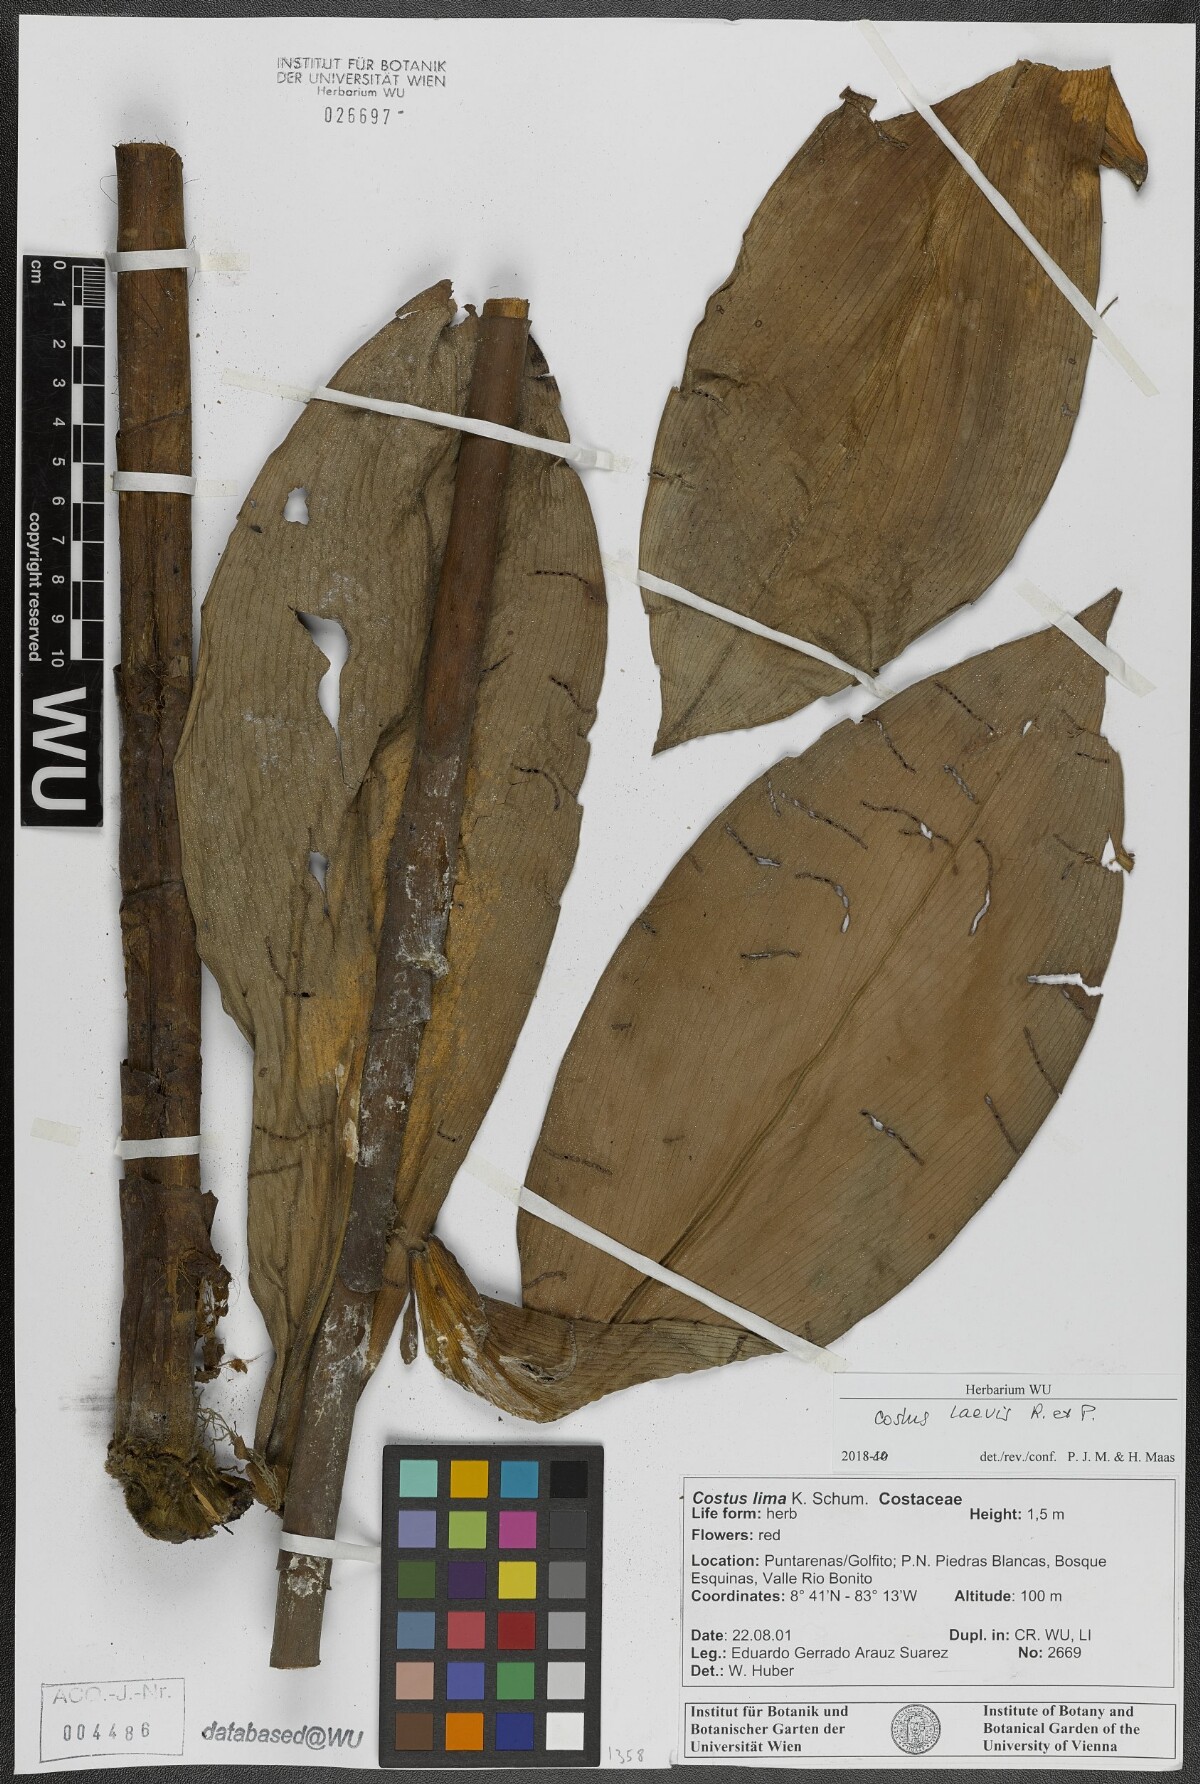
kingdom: Plantae
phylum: Tracheophyta
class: Liliopsida
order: Zingiberales
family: Costaceae
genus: Costus
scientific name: Costus laevis
